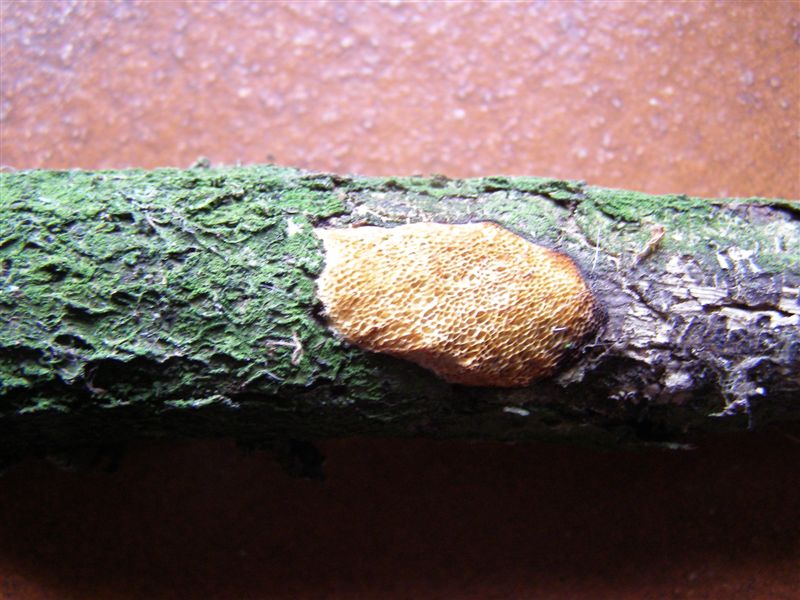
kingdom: Fungi
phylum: Basidiomycota
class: Agaricomycetes
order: Polyporales
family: Polyporaceae
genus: Szczepkamyces
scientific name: Szczepkamyces campestris
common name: hasselporesvamp
